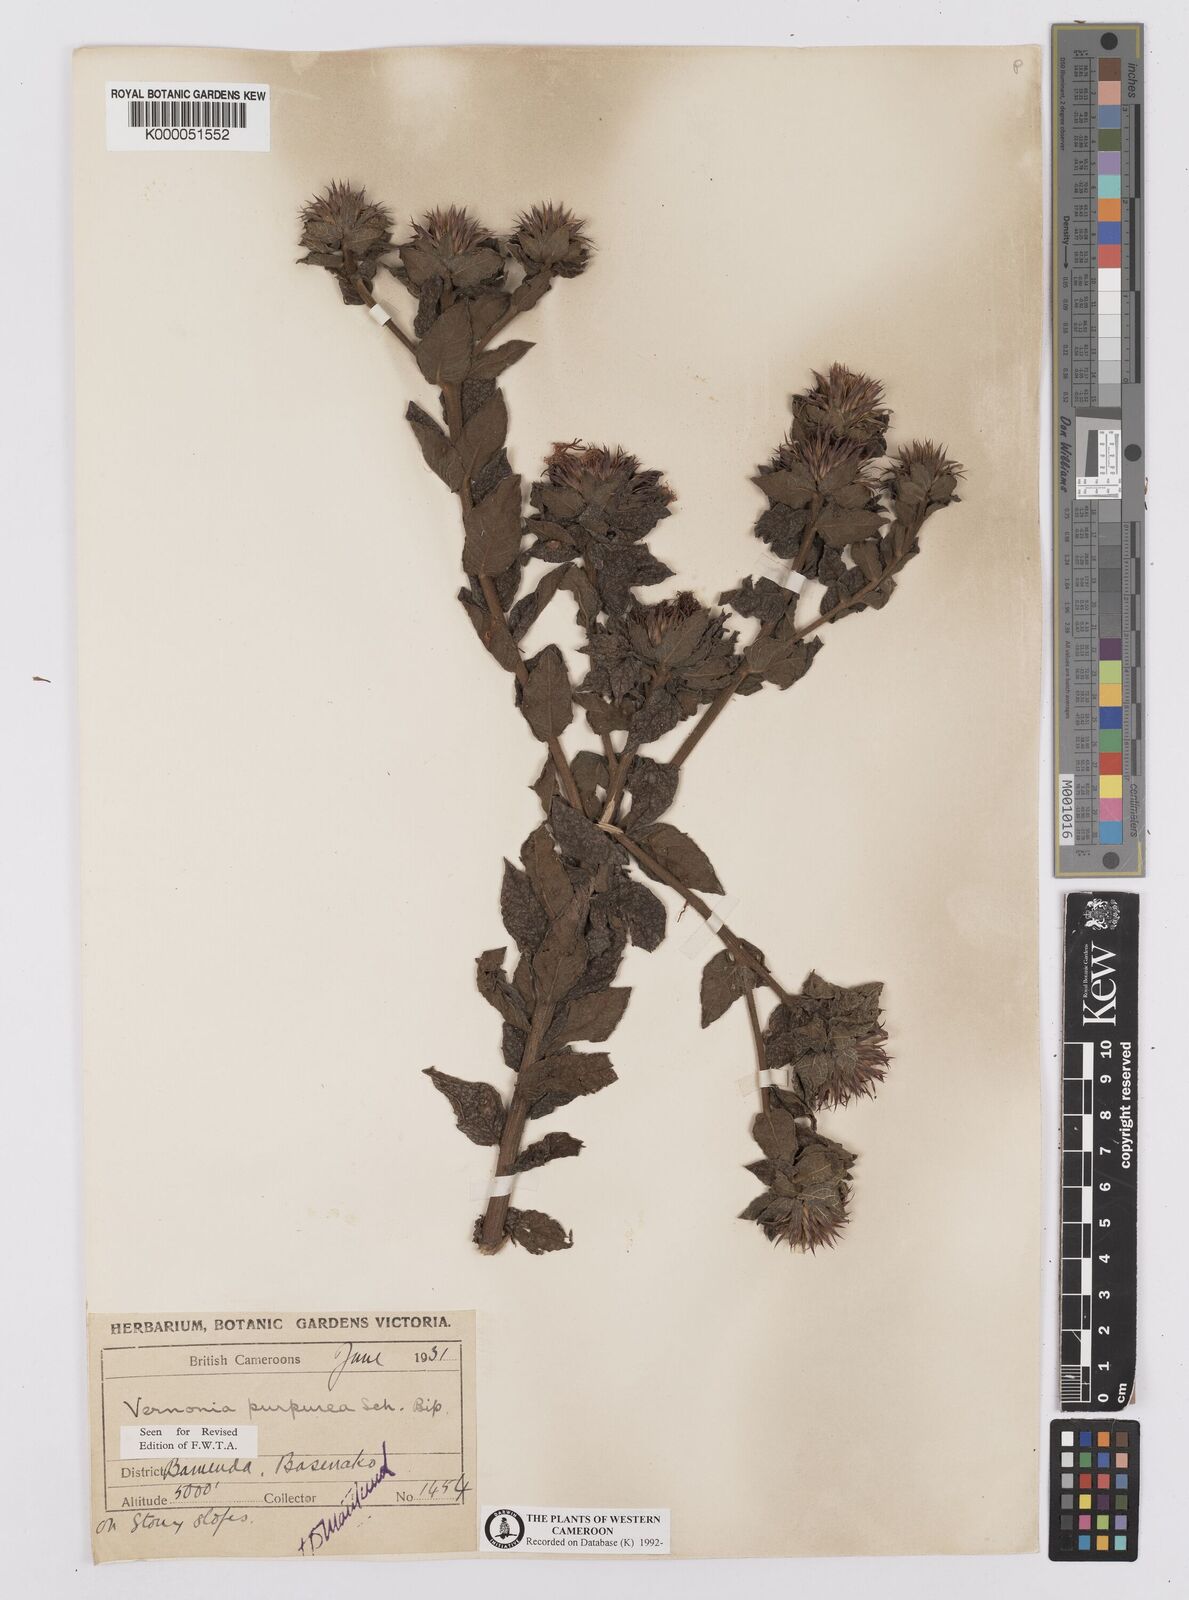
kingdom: Plantae
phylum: Tracheophyta
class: Magnoliopsida
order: Asterales
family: Asteraceae
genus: Vernonia
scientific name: Vernonia
